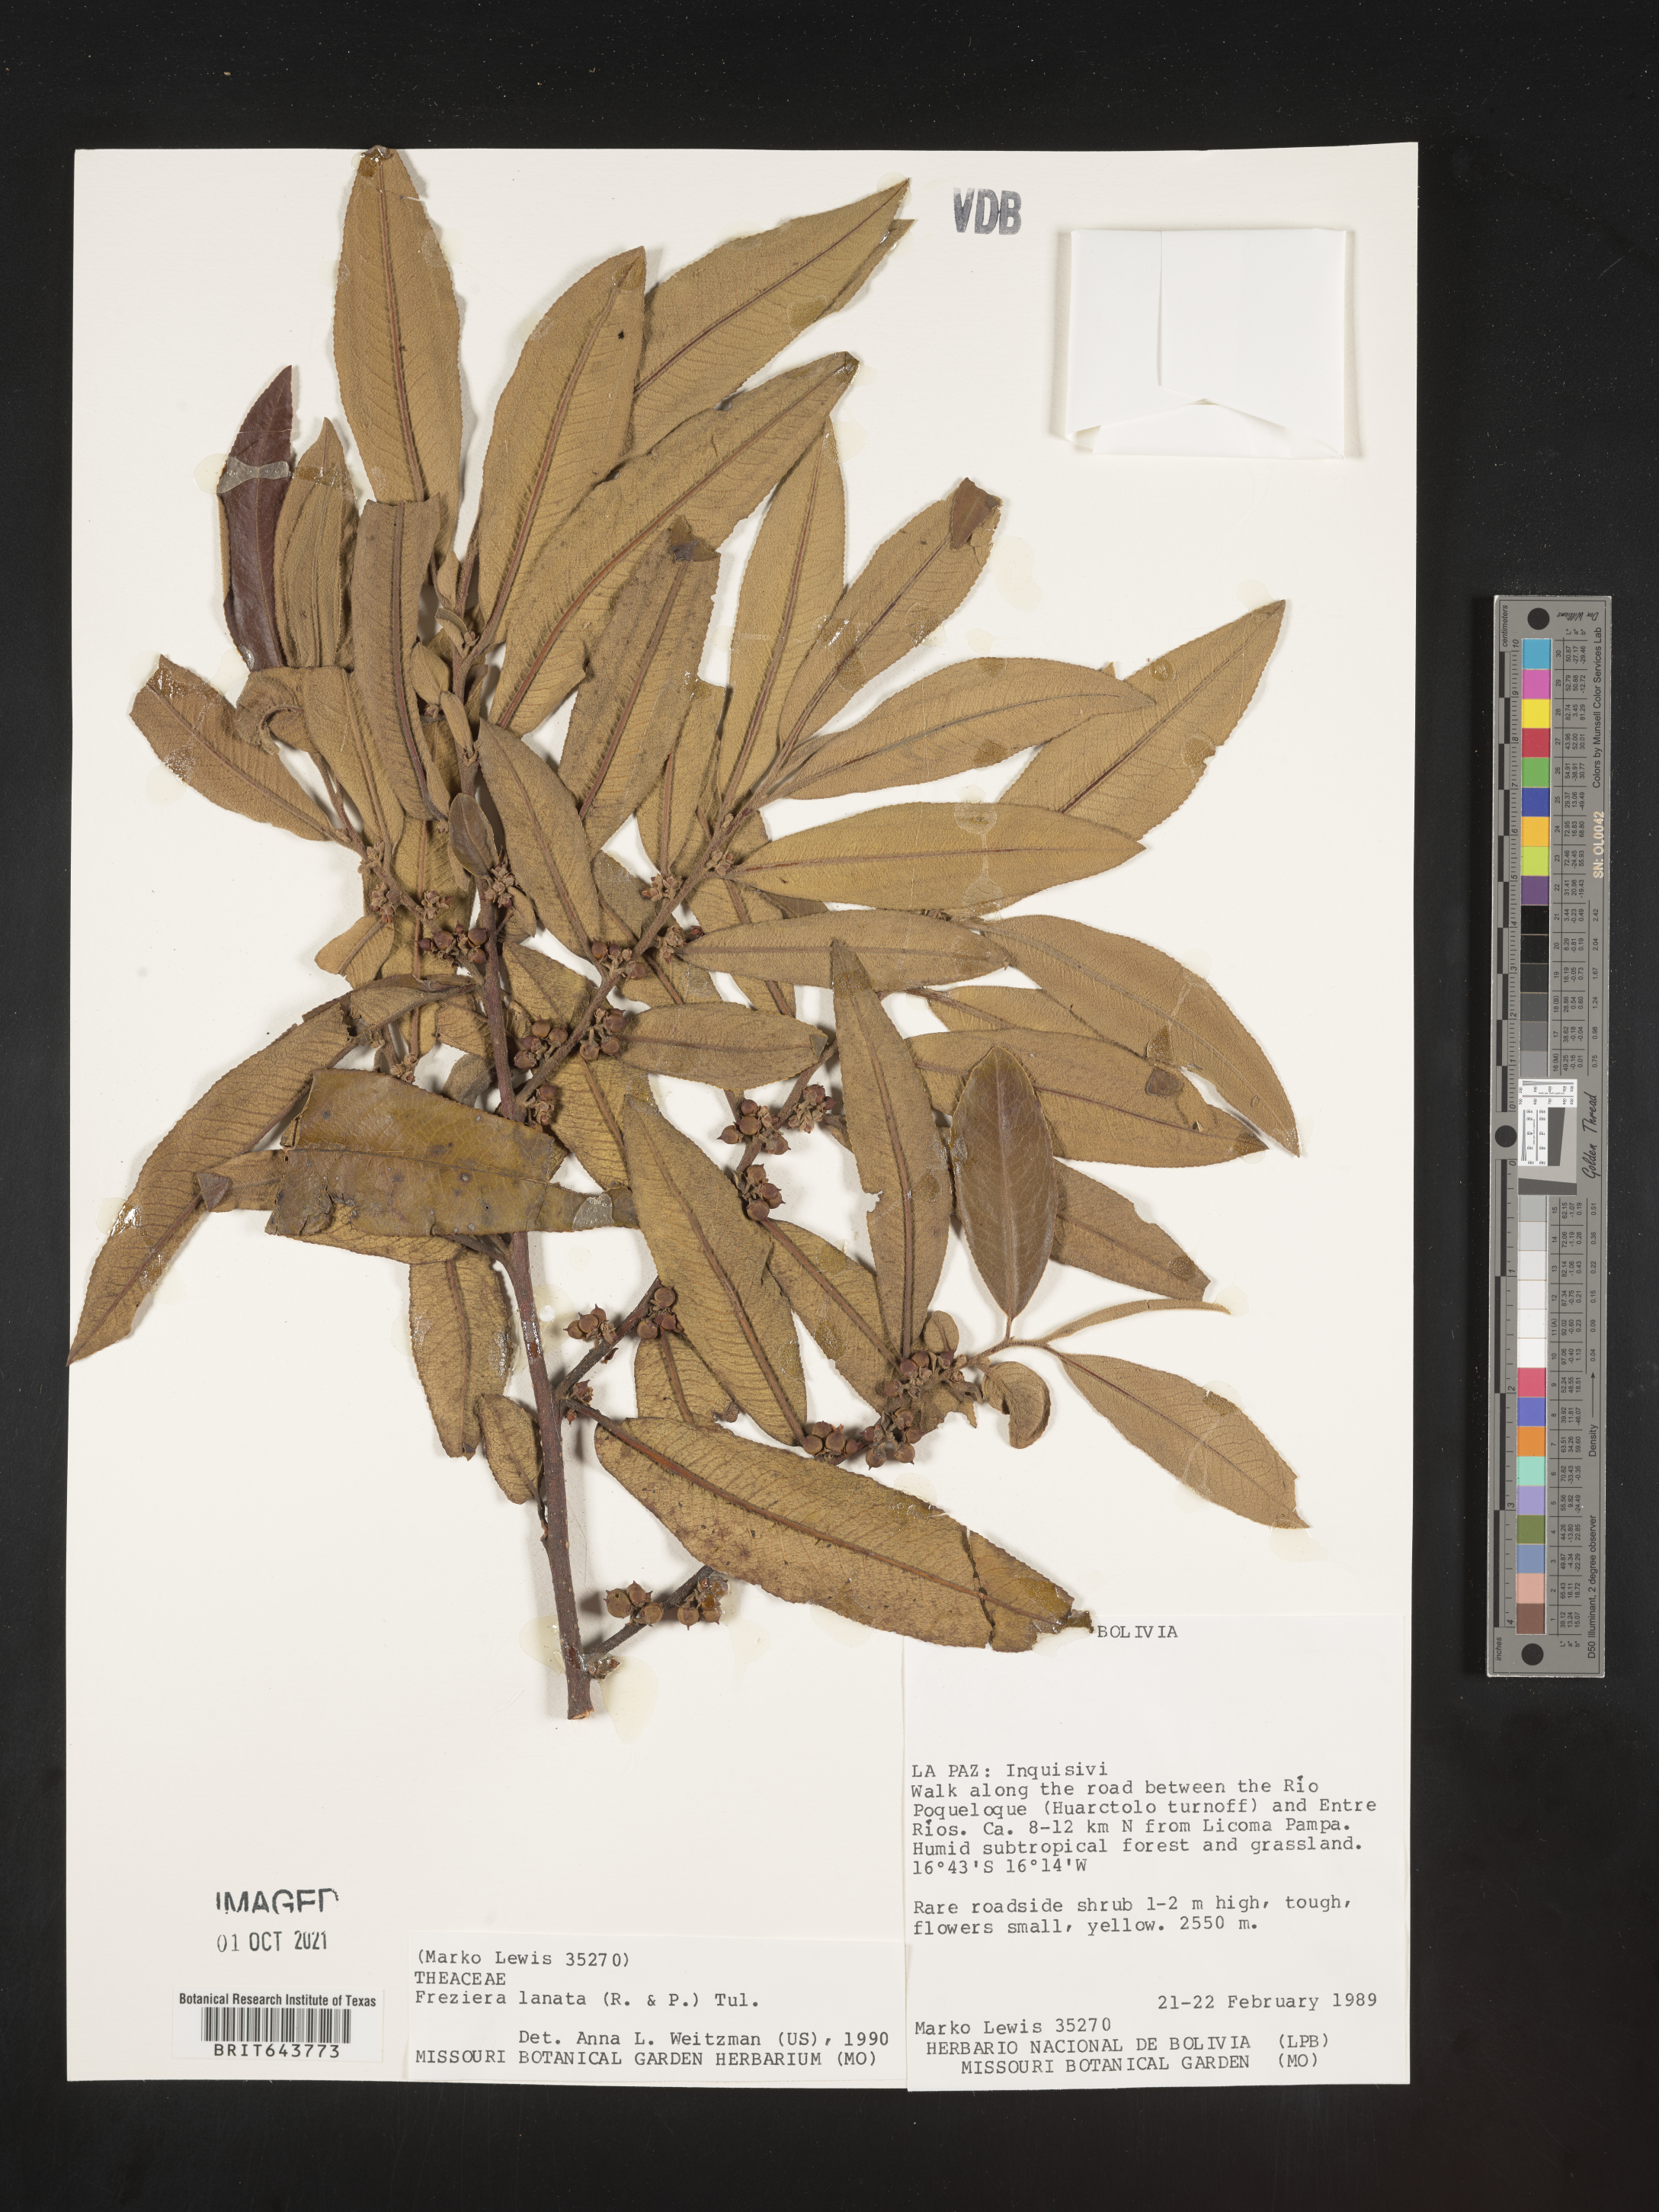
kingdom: Plantae
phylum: Tracheophyta
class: Magnoliopsida
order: Ericales
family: Pentaphylacaceae
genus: Freziera
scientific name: Freziera
